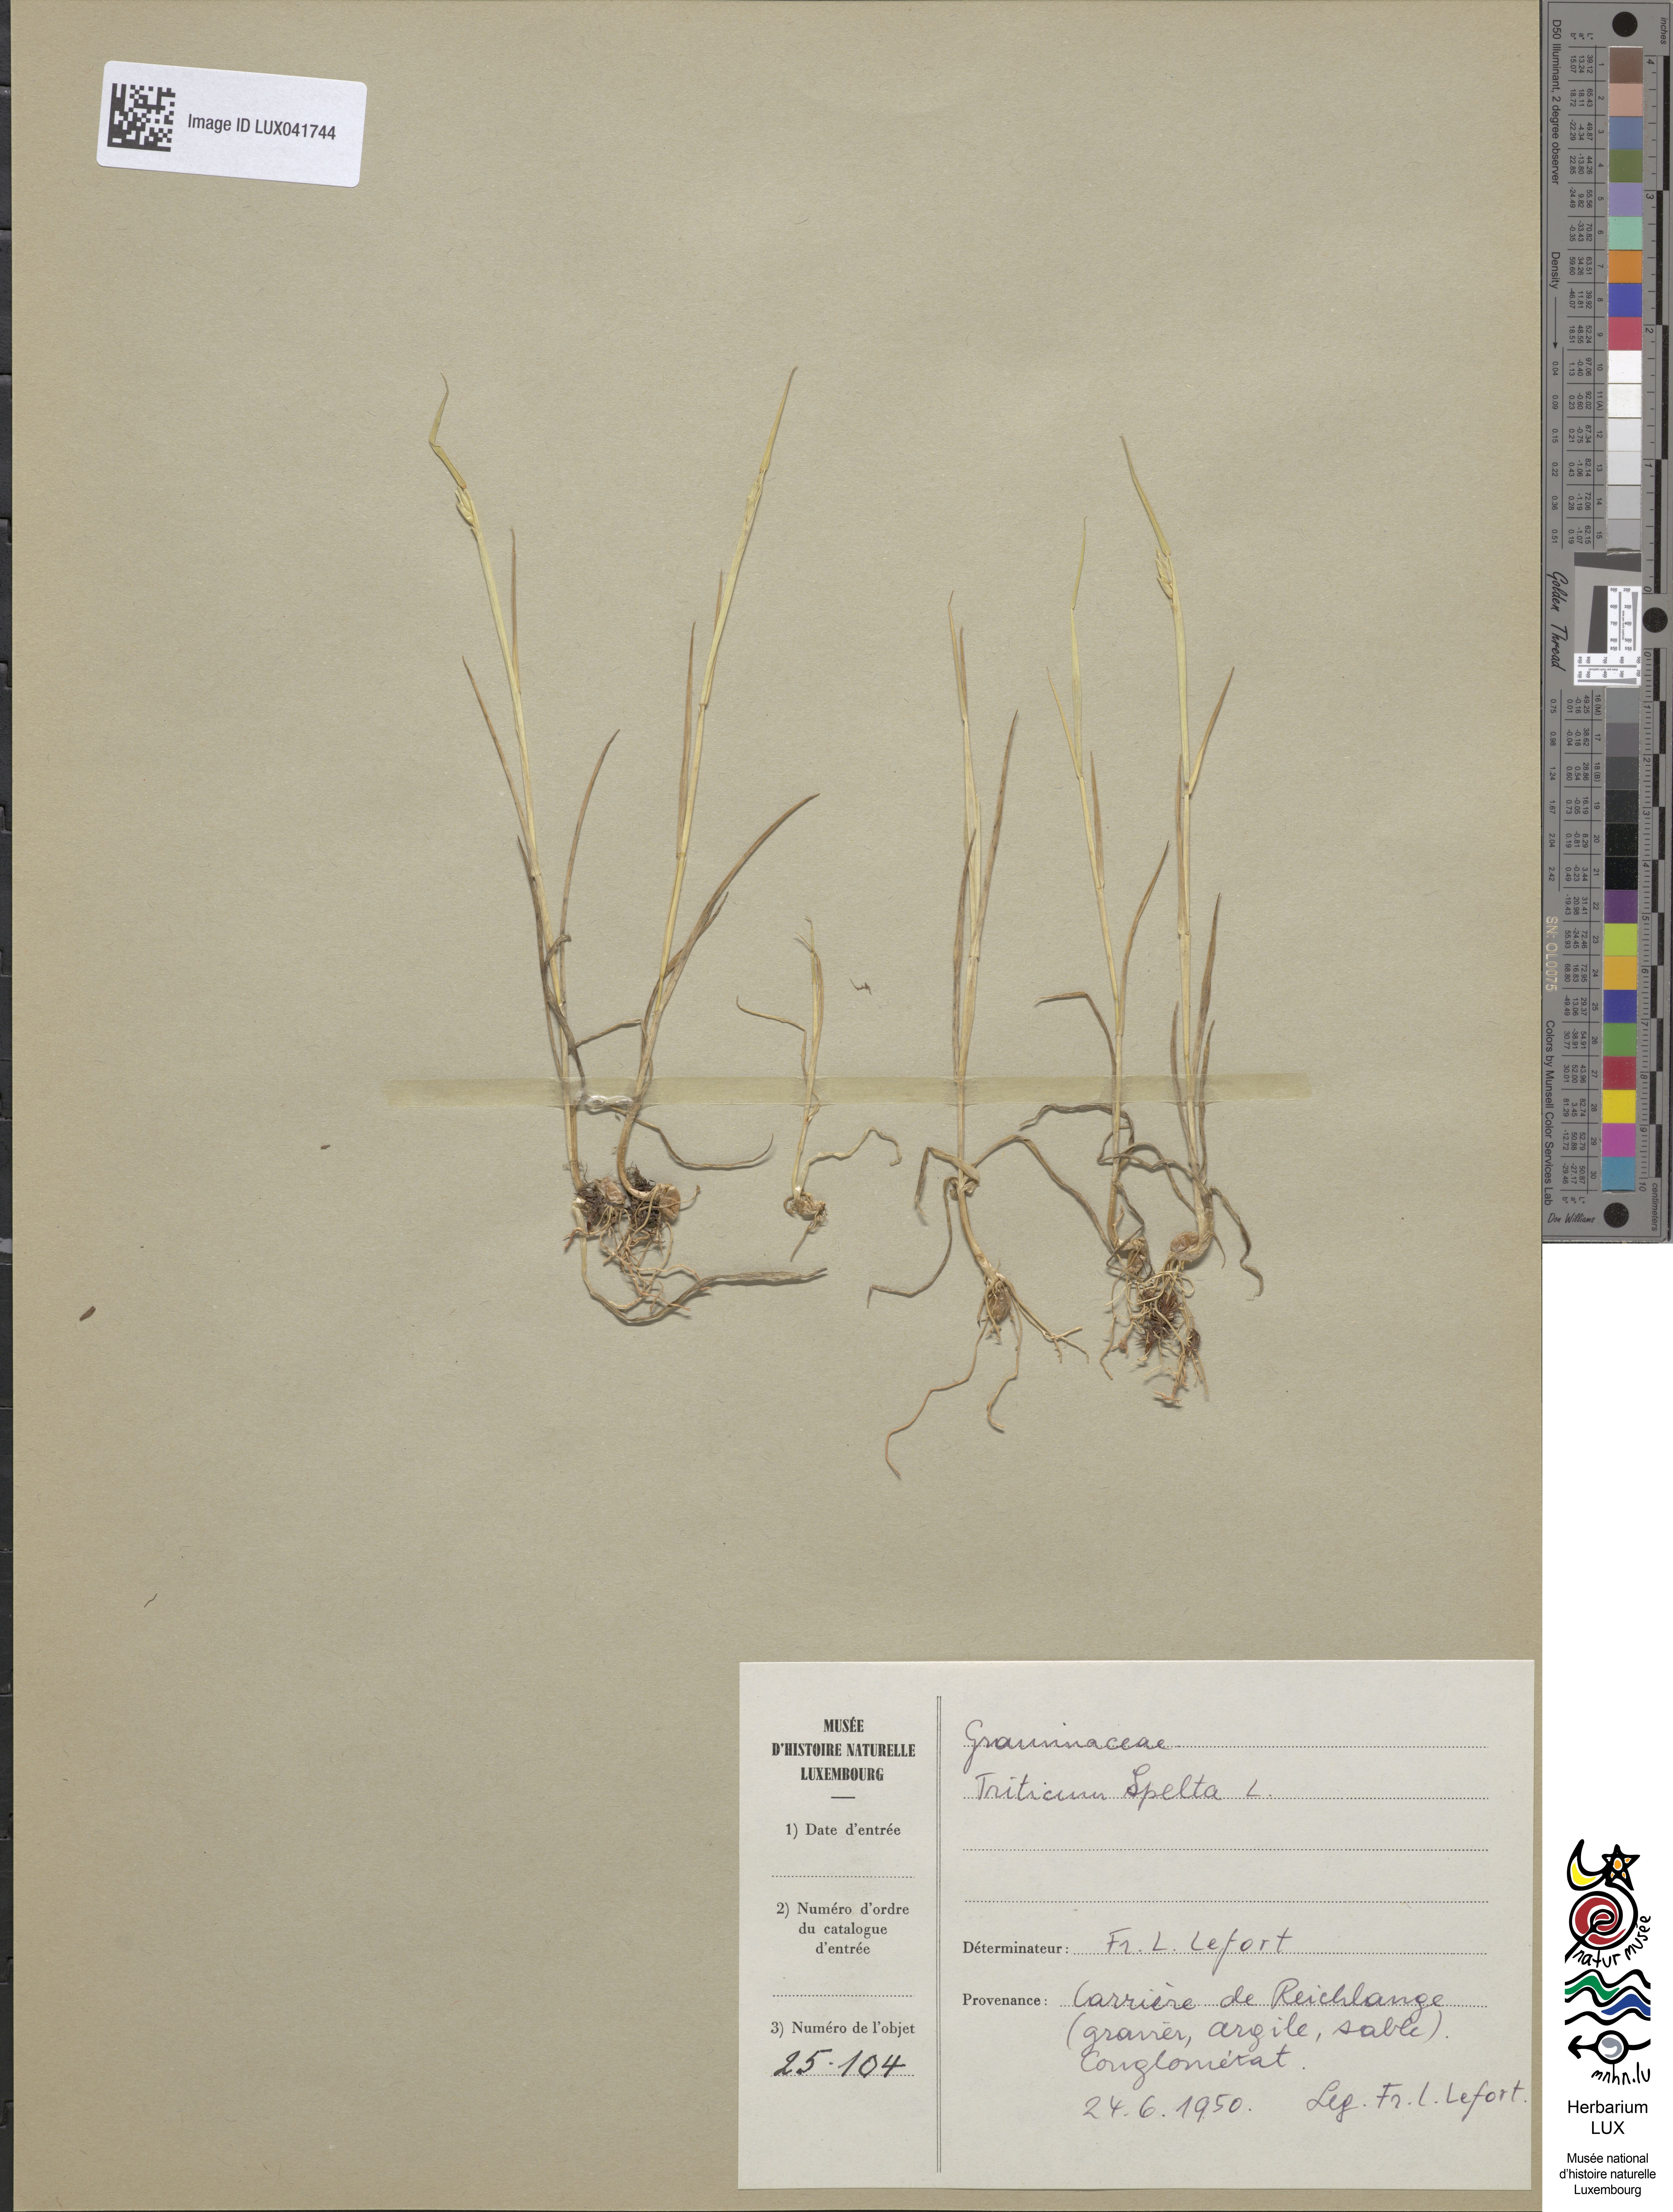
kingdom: Plantae
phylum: Tracheophyta
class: Liliopsida
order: Poales
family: Poaceae
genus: Triticum
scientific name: Triticum aestivum
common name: Common wheat
